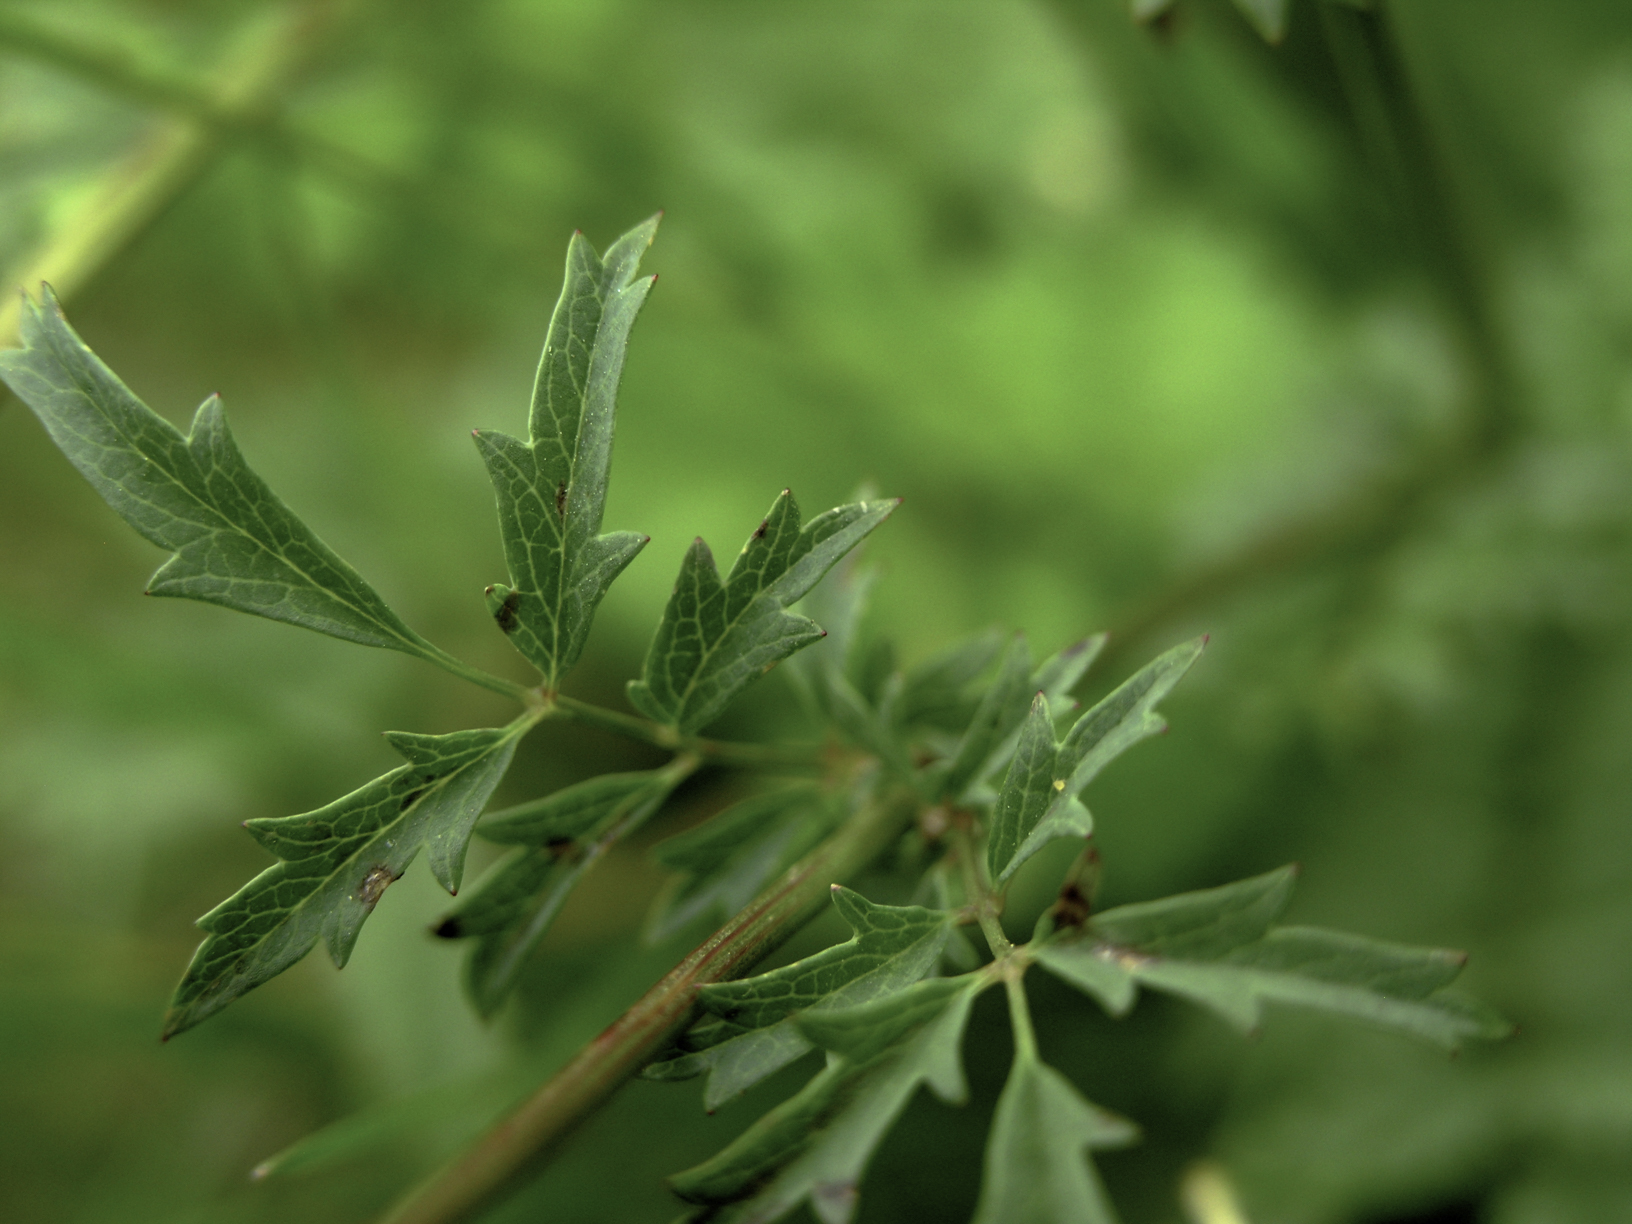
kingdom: Plantae
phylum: Tracheophyta
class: Magnoliopsida
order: Rosales
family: Rosaceae
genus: Poterium
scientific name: Poterium sanguisorba
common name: Salad burnet
